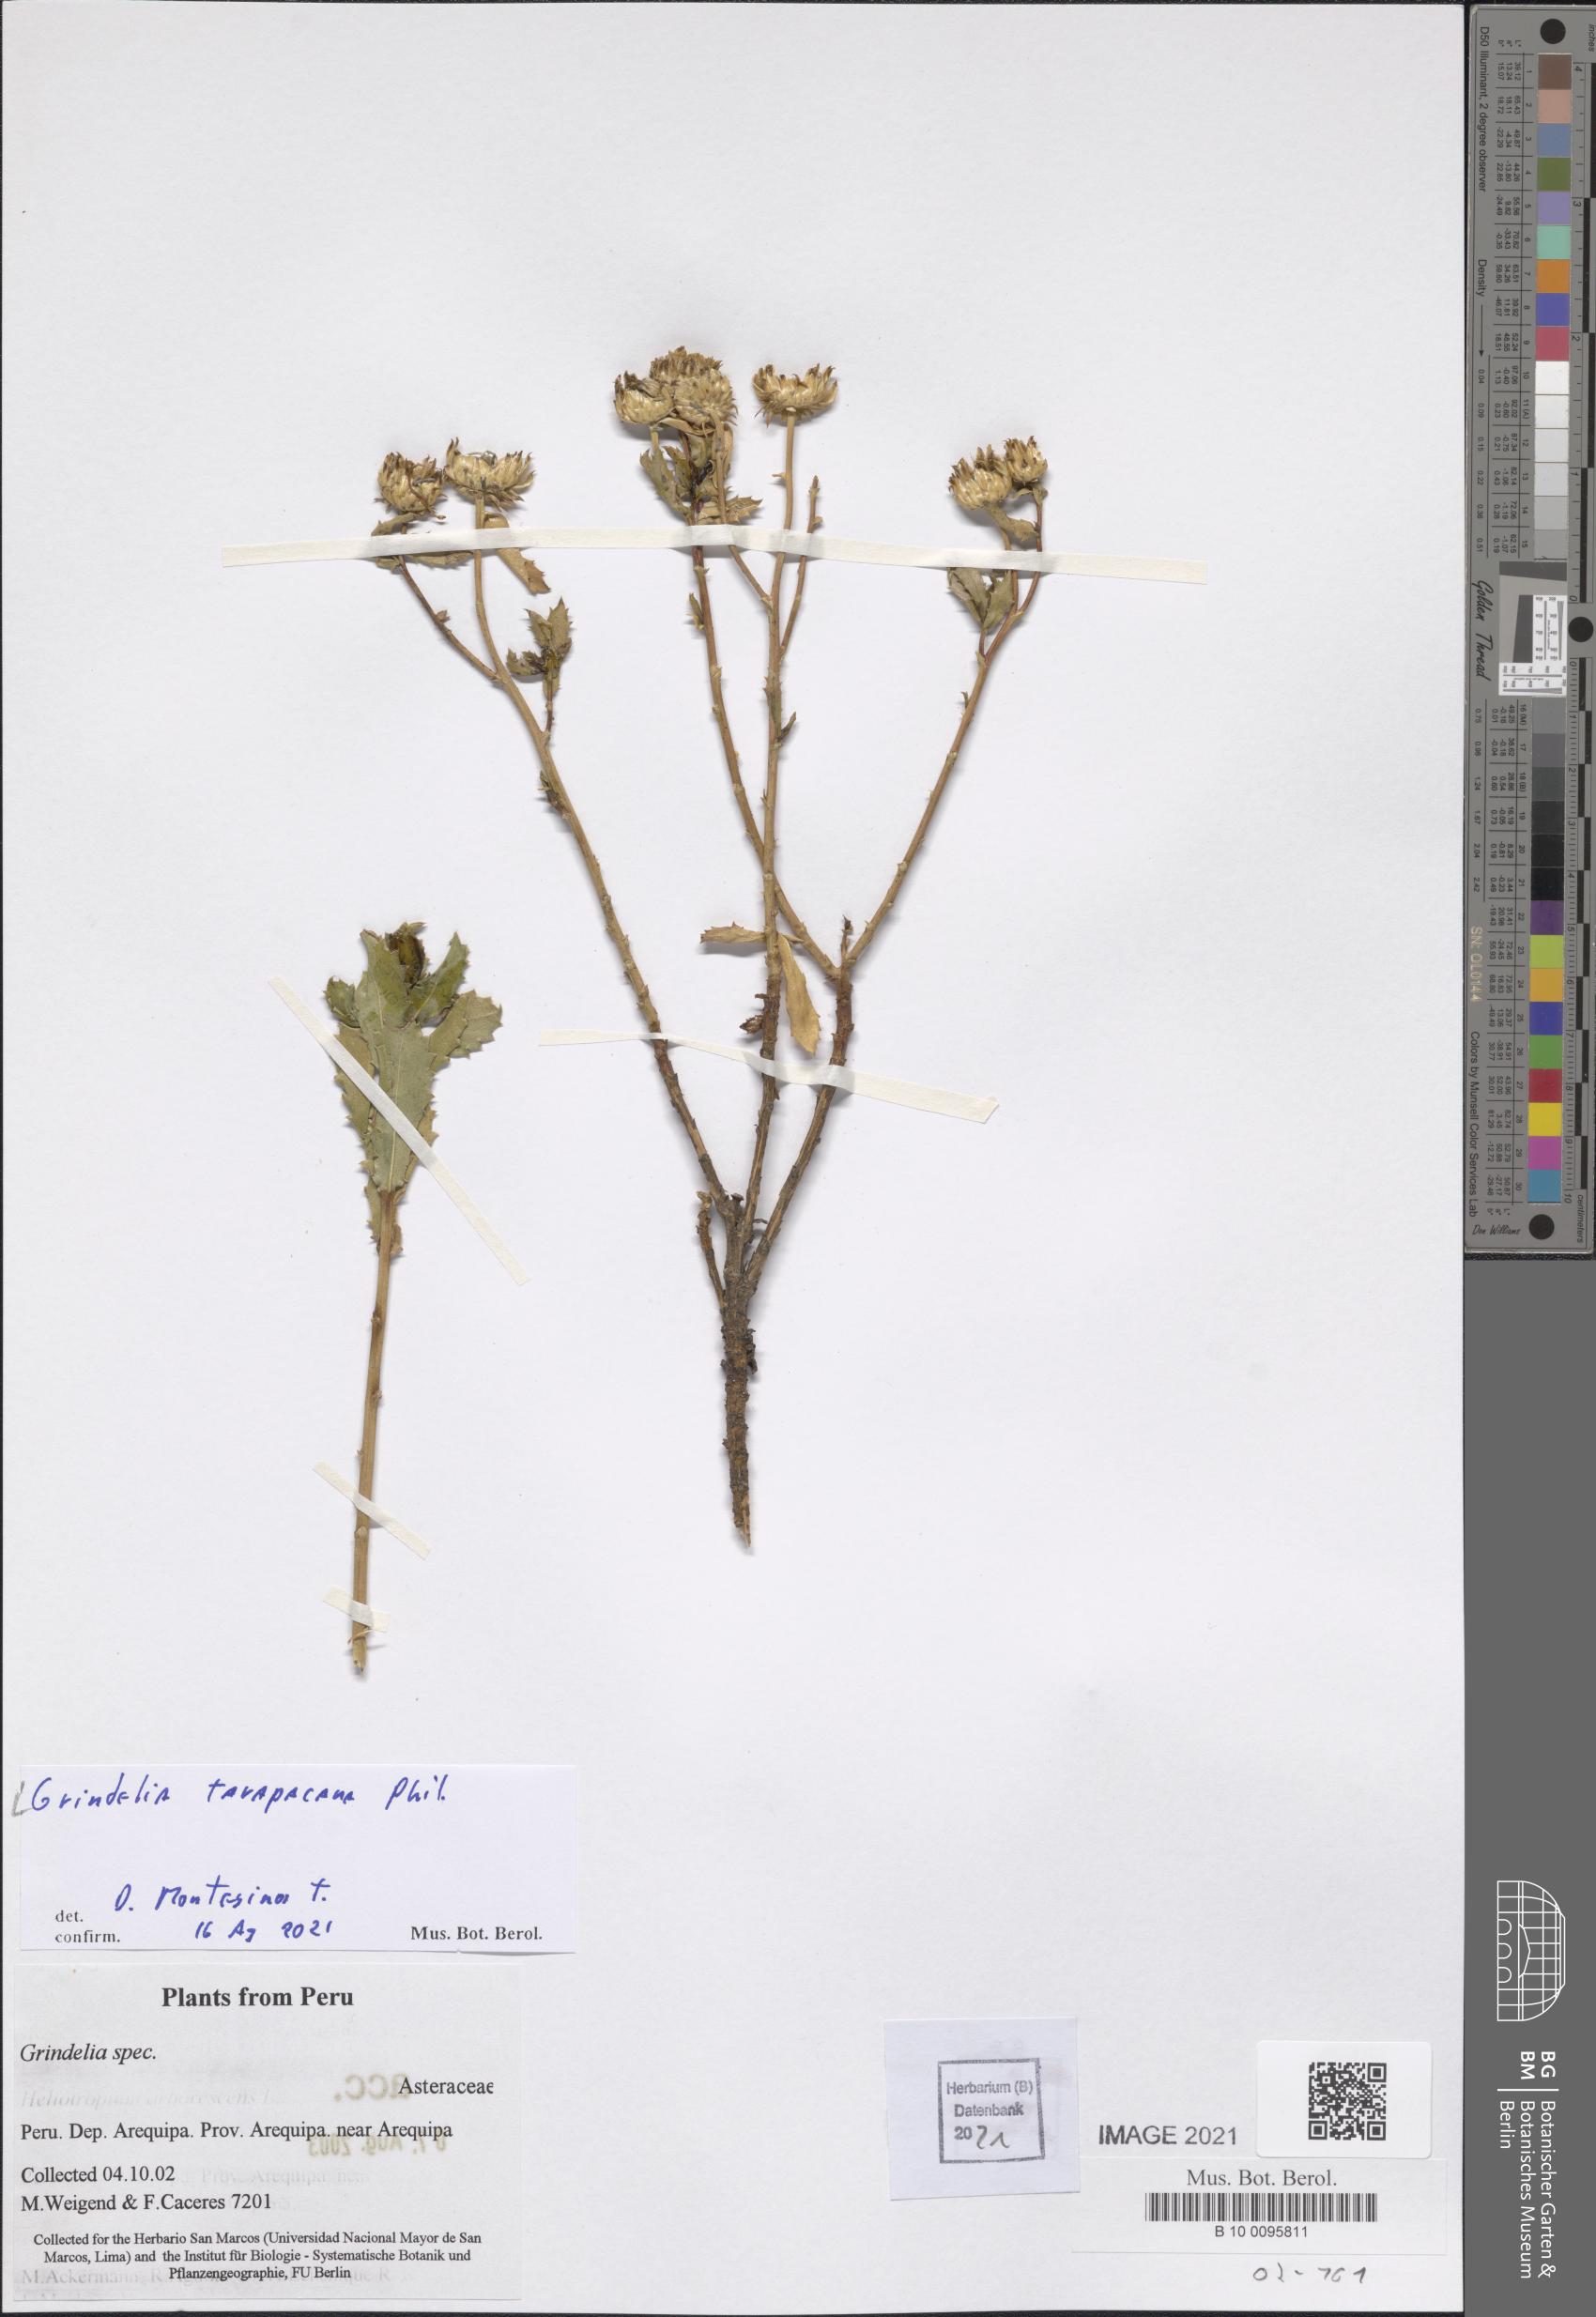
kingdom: Plantae
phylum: Tracheophyta
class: Magnoliopsida
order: Asterales
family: Asteraceae
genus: Grindelia
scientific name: Grindelia tarapacana
